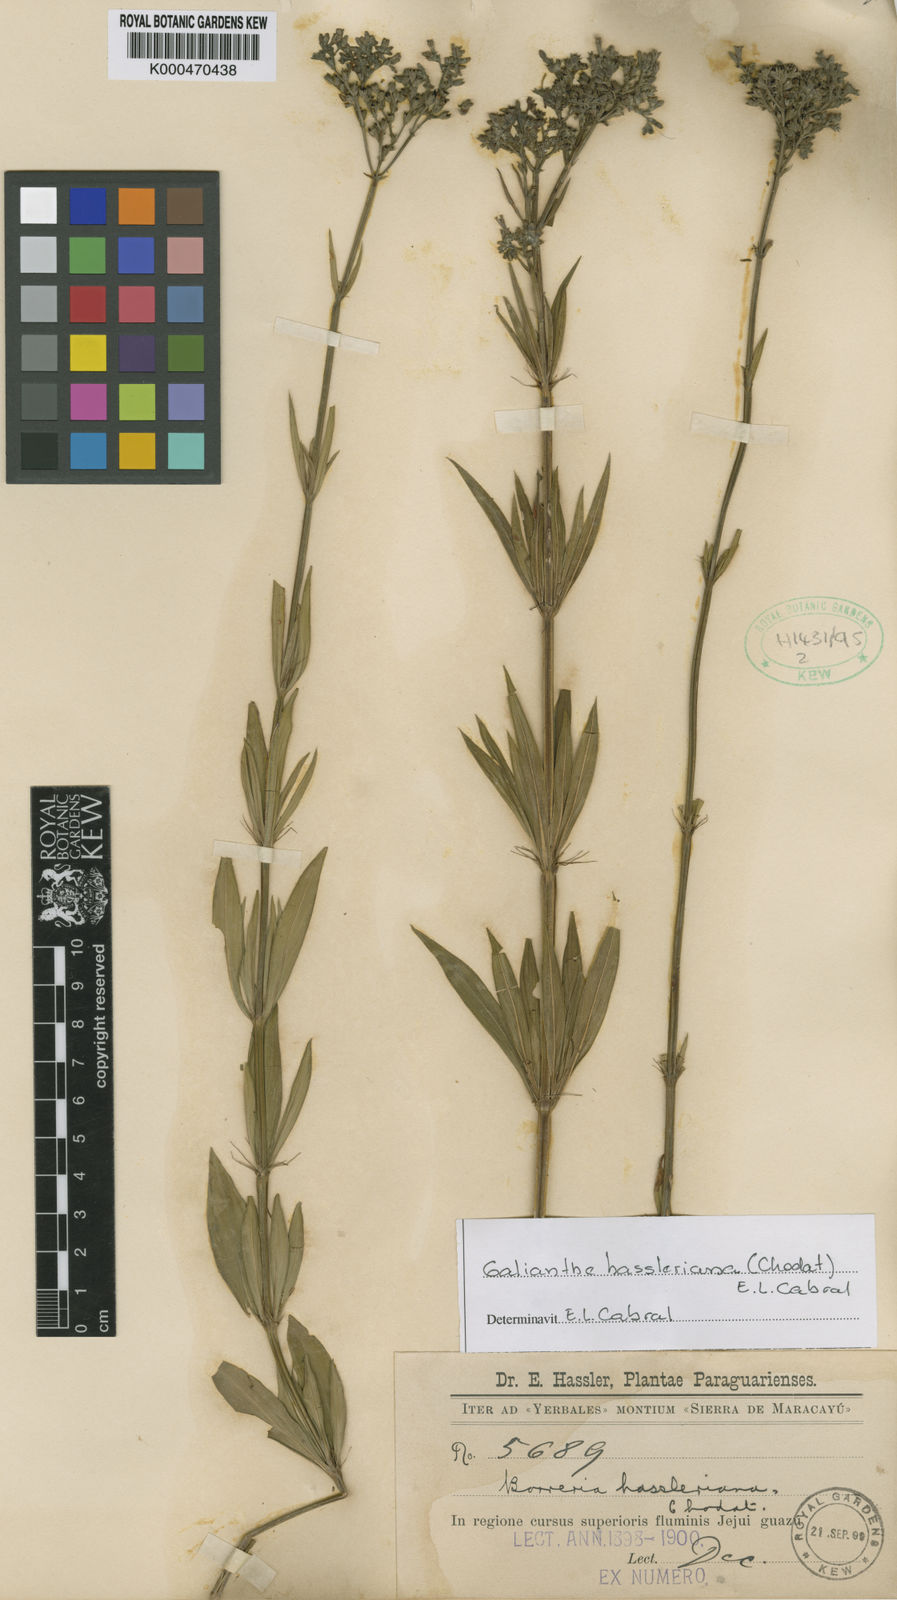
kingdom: Plantae
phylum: Tracheophyta
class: Magnoliopsida
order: Gentianales
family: Rubiaceae
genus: Galianthe
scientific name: Galianthe hassleriana
